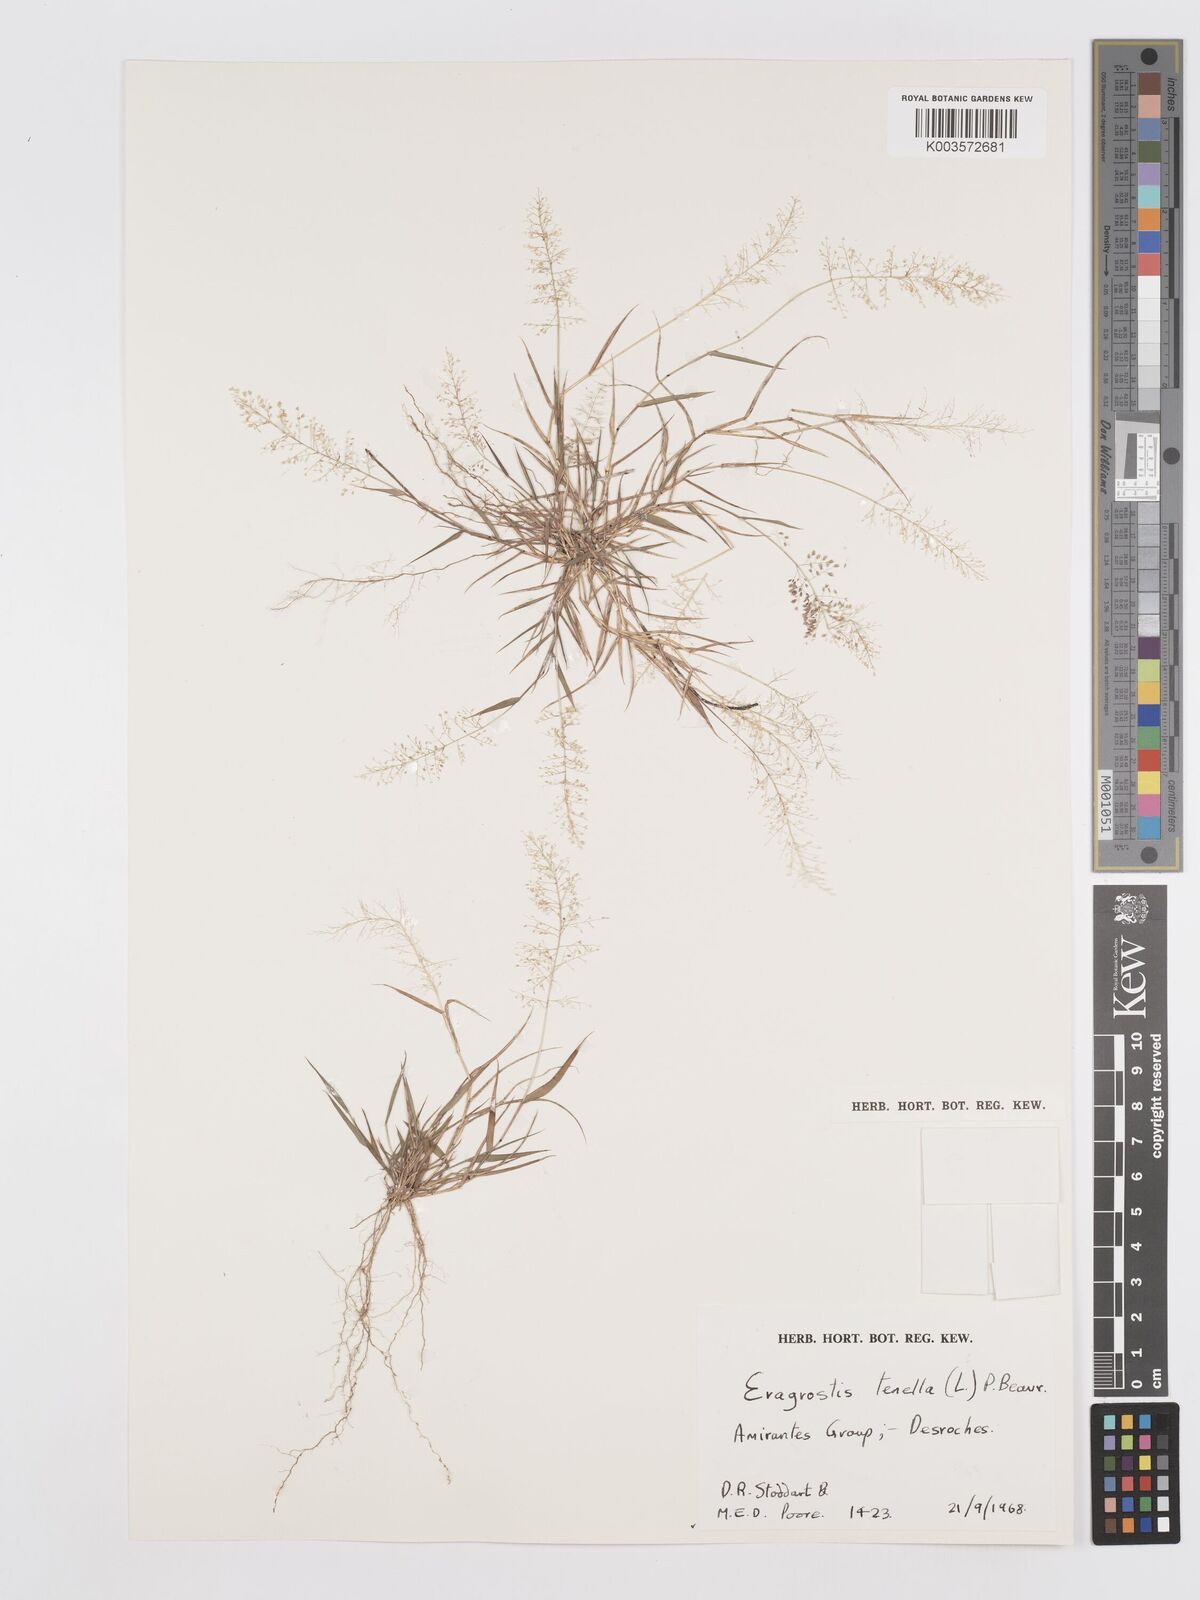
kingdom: Plantae
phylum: Tracheophyta
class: Liliopsida
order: Poales
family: Poaceae
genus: Eragrostis
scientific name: Eragrostis tenella
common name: Japanese lovegrass
